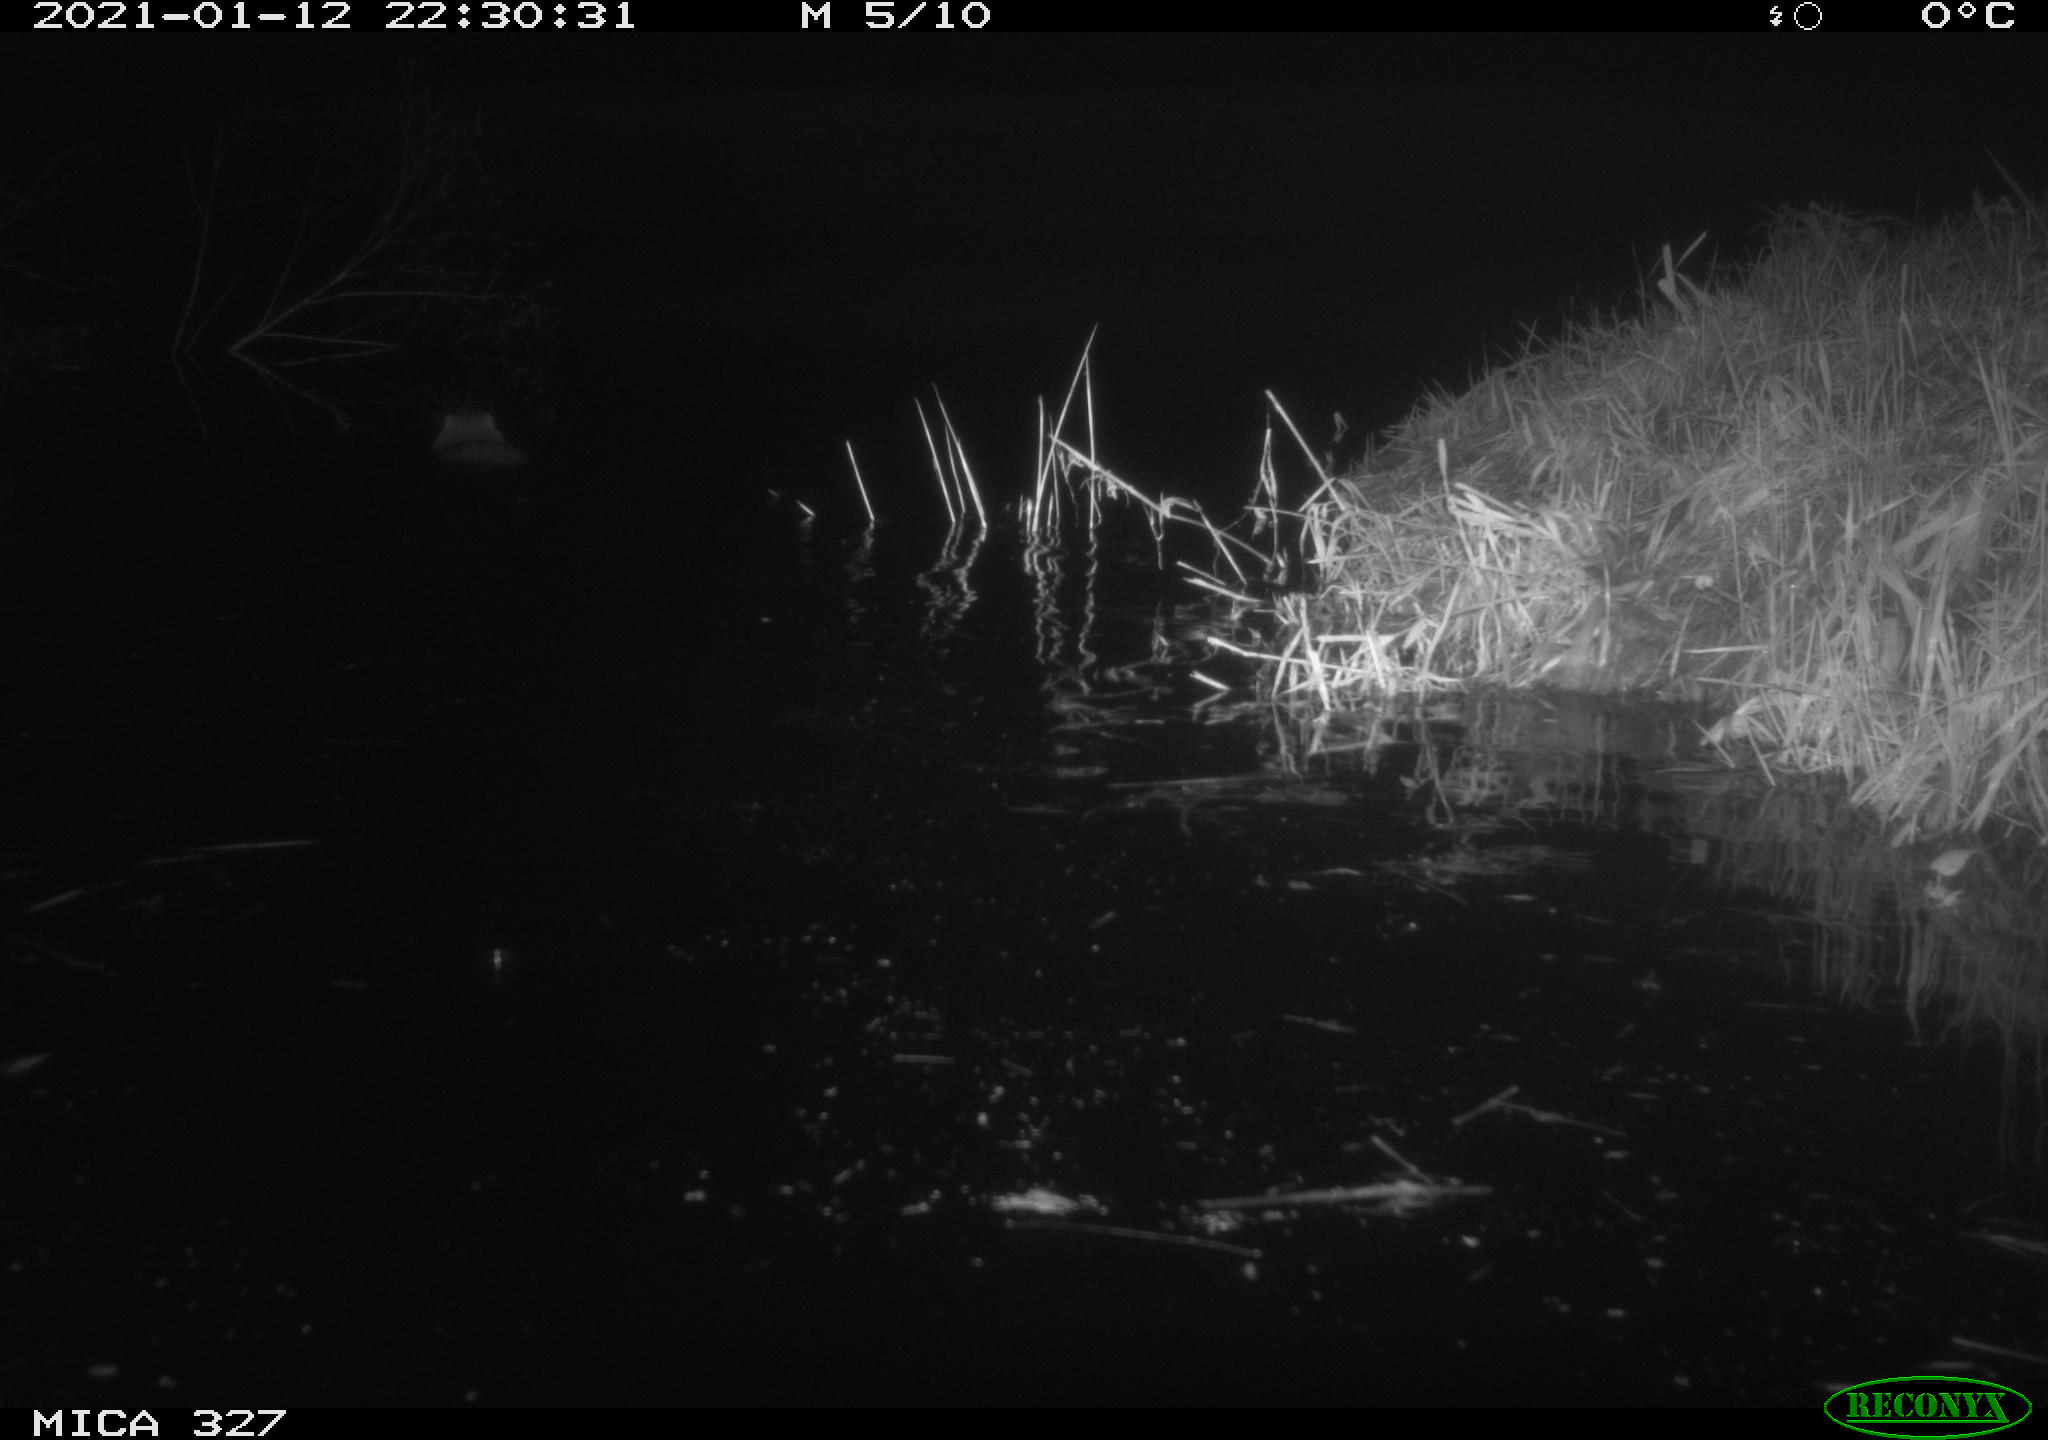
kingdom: Animalia
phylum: Chordata
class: Mammalia
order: Rodentia
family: Myocastoridae
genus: Myocastor
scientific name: Myocastor coypus
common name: Coypu
